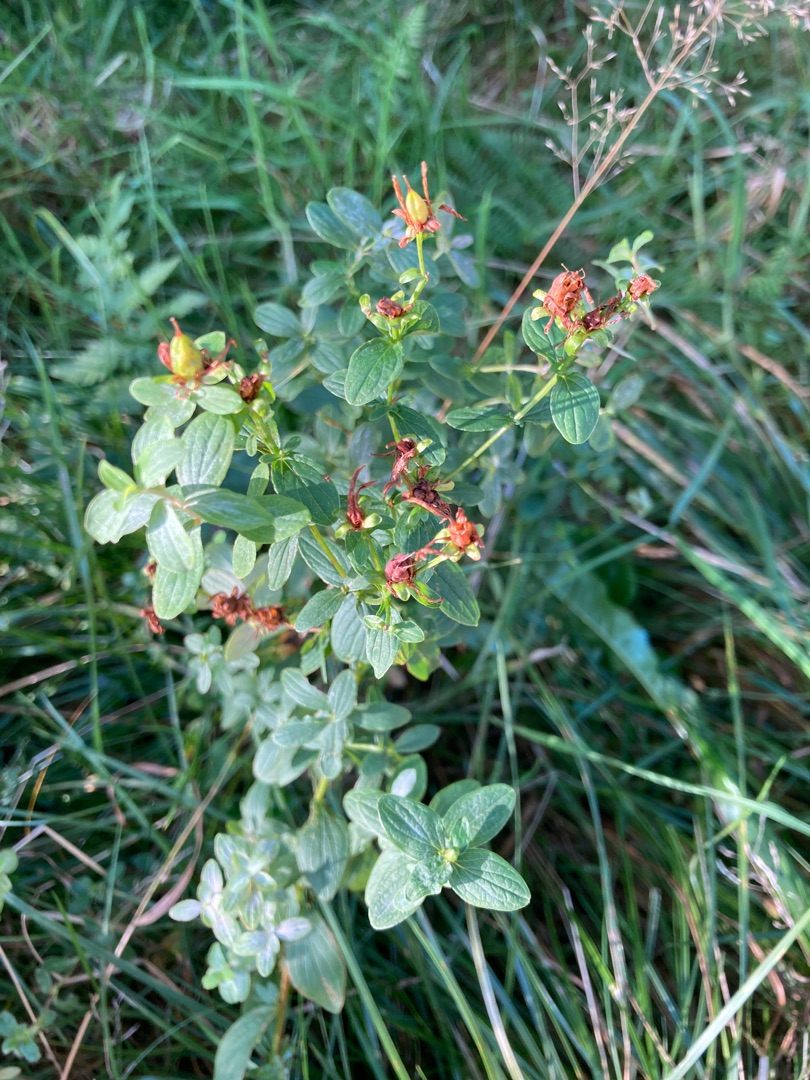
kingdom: Plantae
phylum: Tracheophyta
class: Magnoliopsida
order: Malpighiales
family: Hypericaceae
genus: Hypericum
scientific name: Hypericum perforatum
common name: Prikbladet perikon
